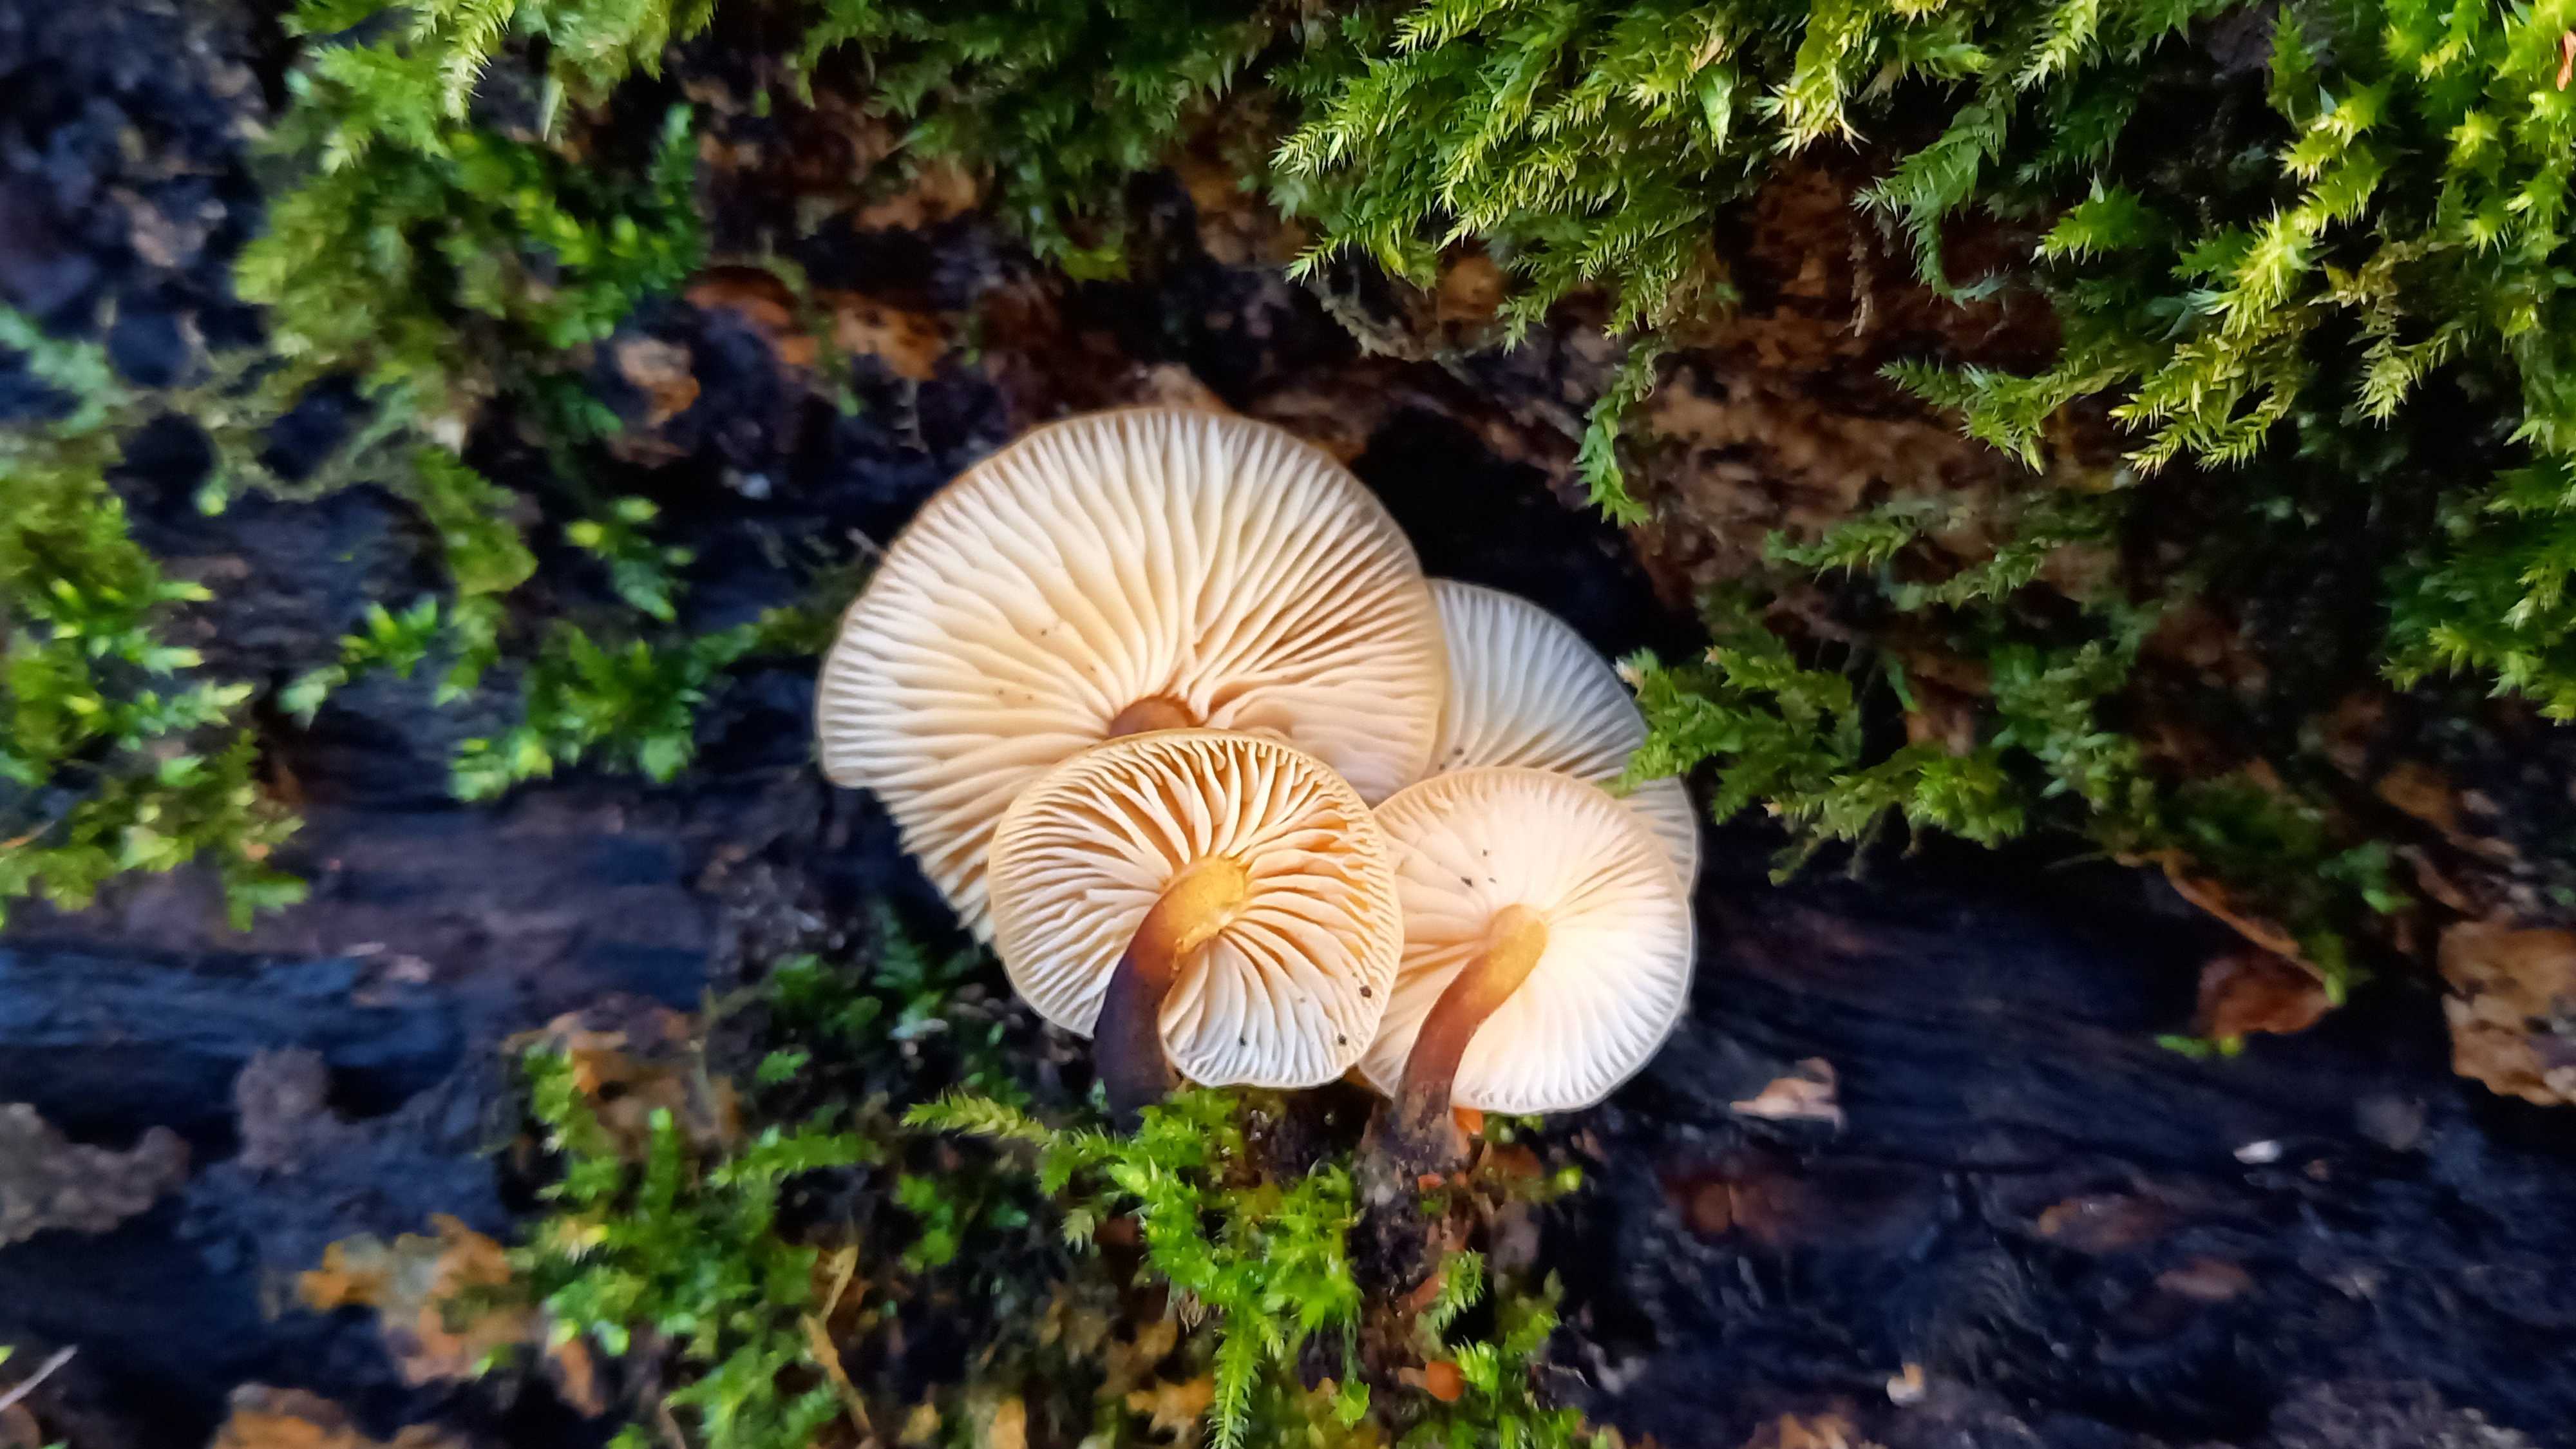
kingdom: Fungi
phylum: Basidiomycota
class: Agaricomycetes
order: Agaricales
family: Physalacriaceae
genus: Flammulina
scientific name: Flammulina velutipes
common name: gul fløjlsfod
